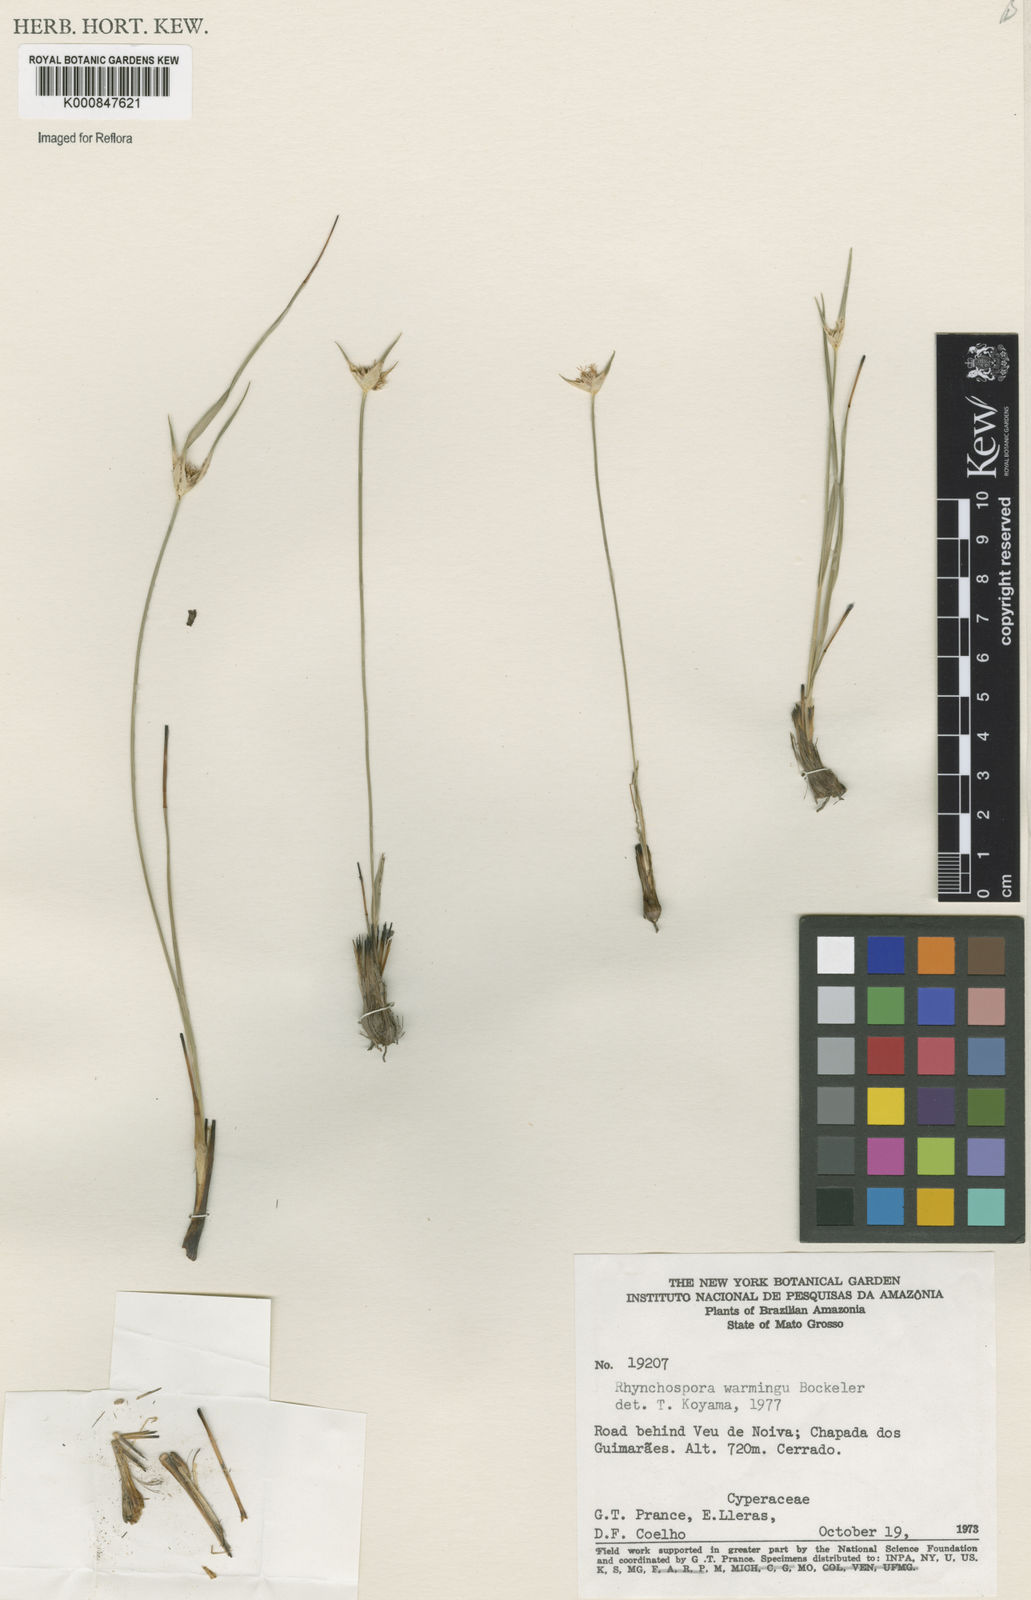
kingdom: Plantae
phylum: Tracheophyta
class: Liliopsida
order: Poales
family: Cyperaceae
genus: Rhynchospora
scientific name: Rhynchospora warmingii
